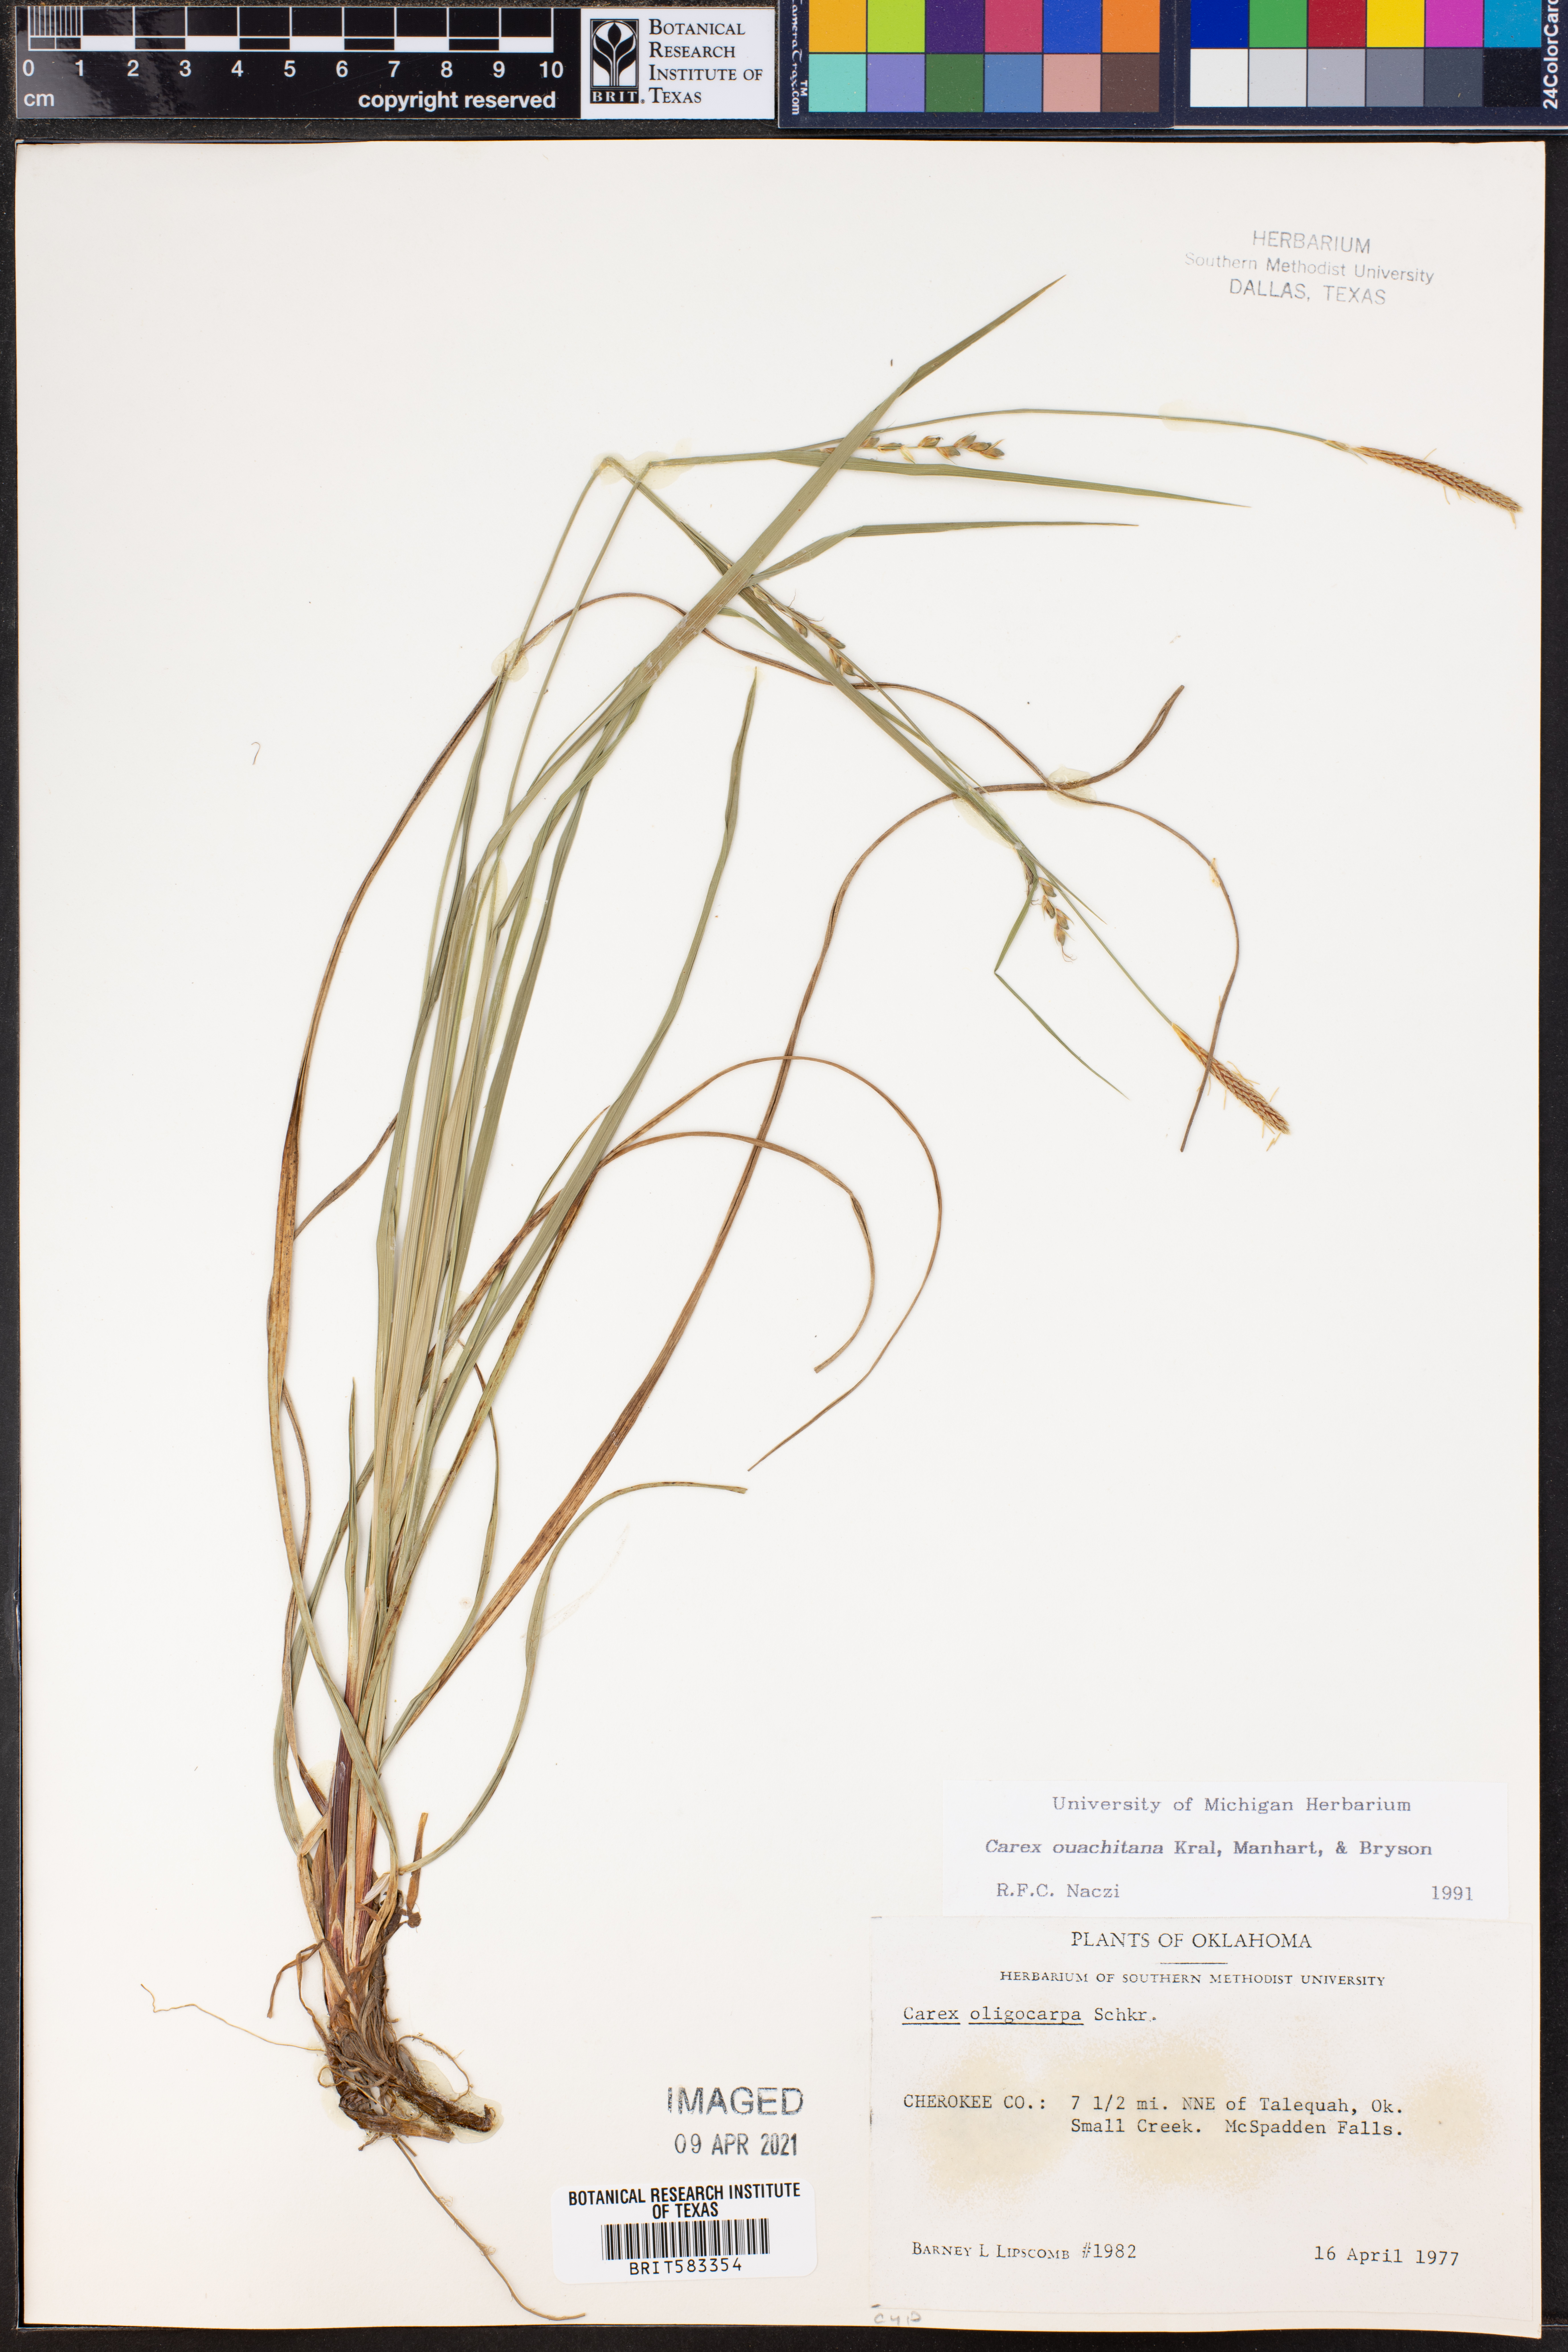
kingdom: Plantae
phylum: Tracheophyta
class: Liliopsida
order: Poales
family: Cyperaceae
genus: Carex
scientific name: Carex ouachitana
